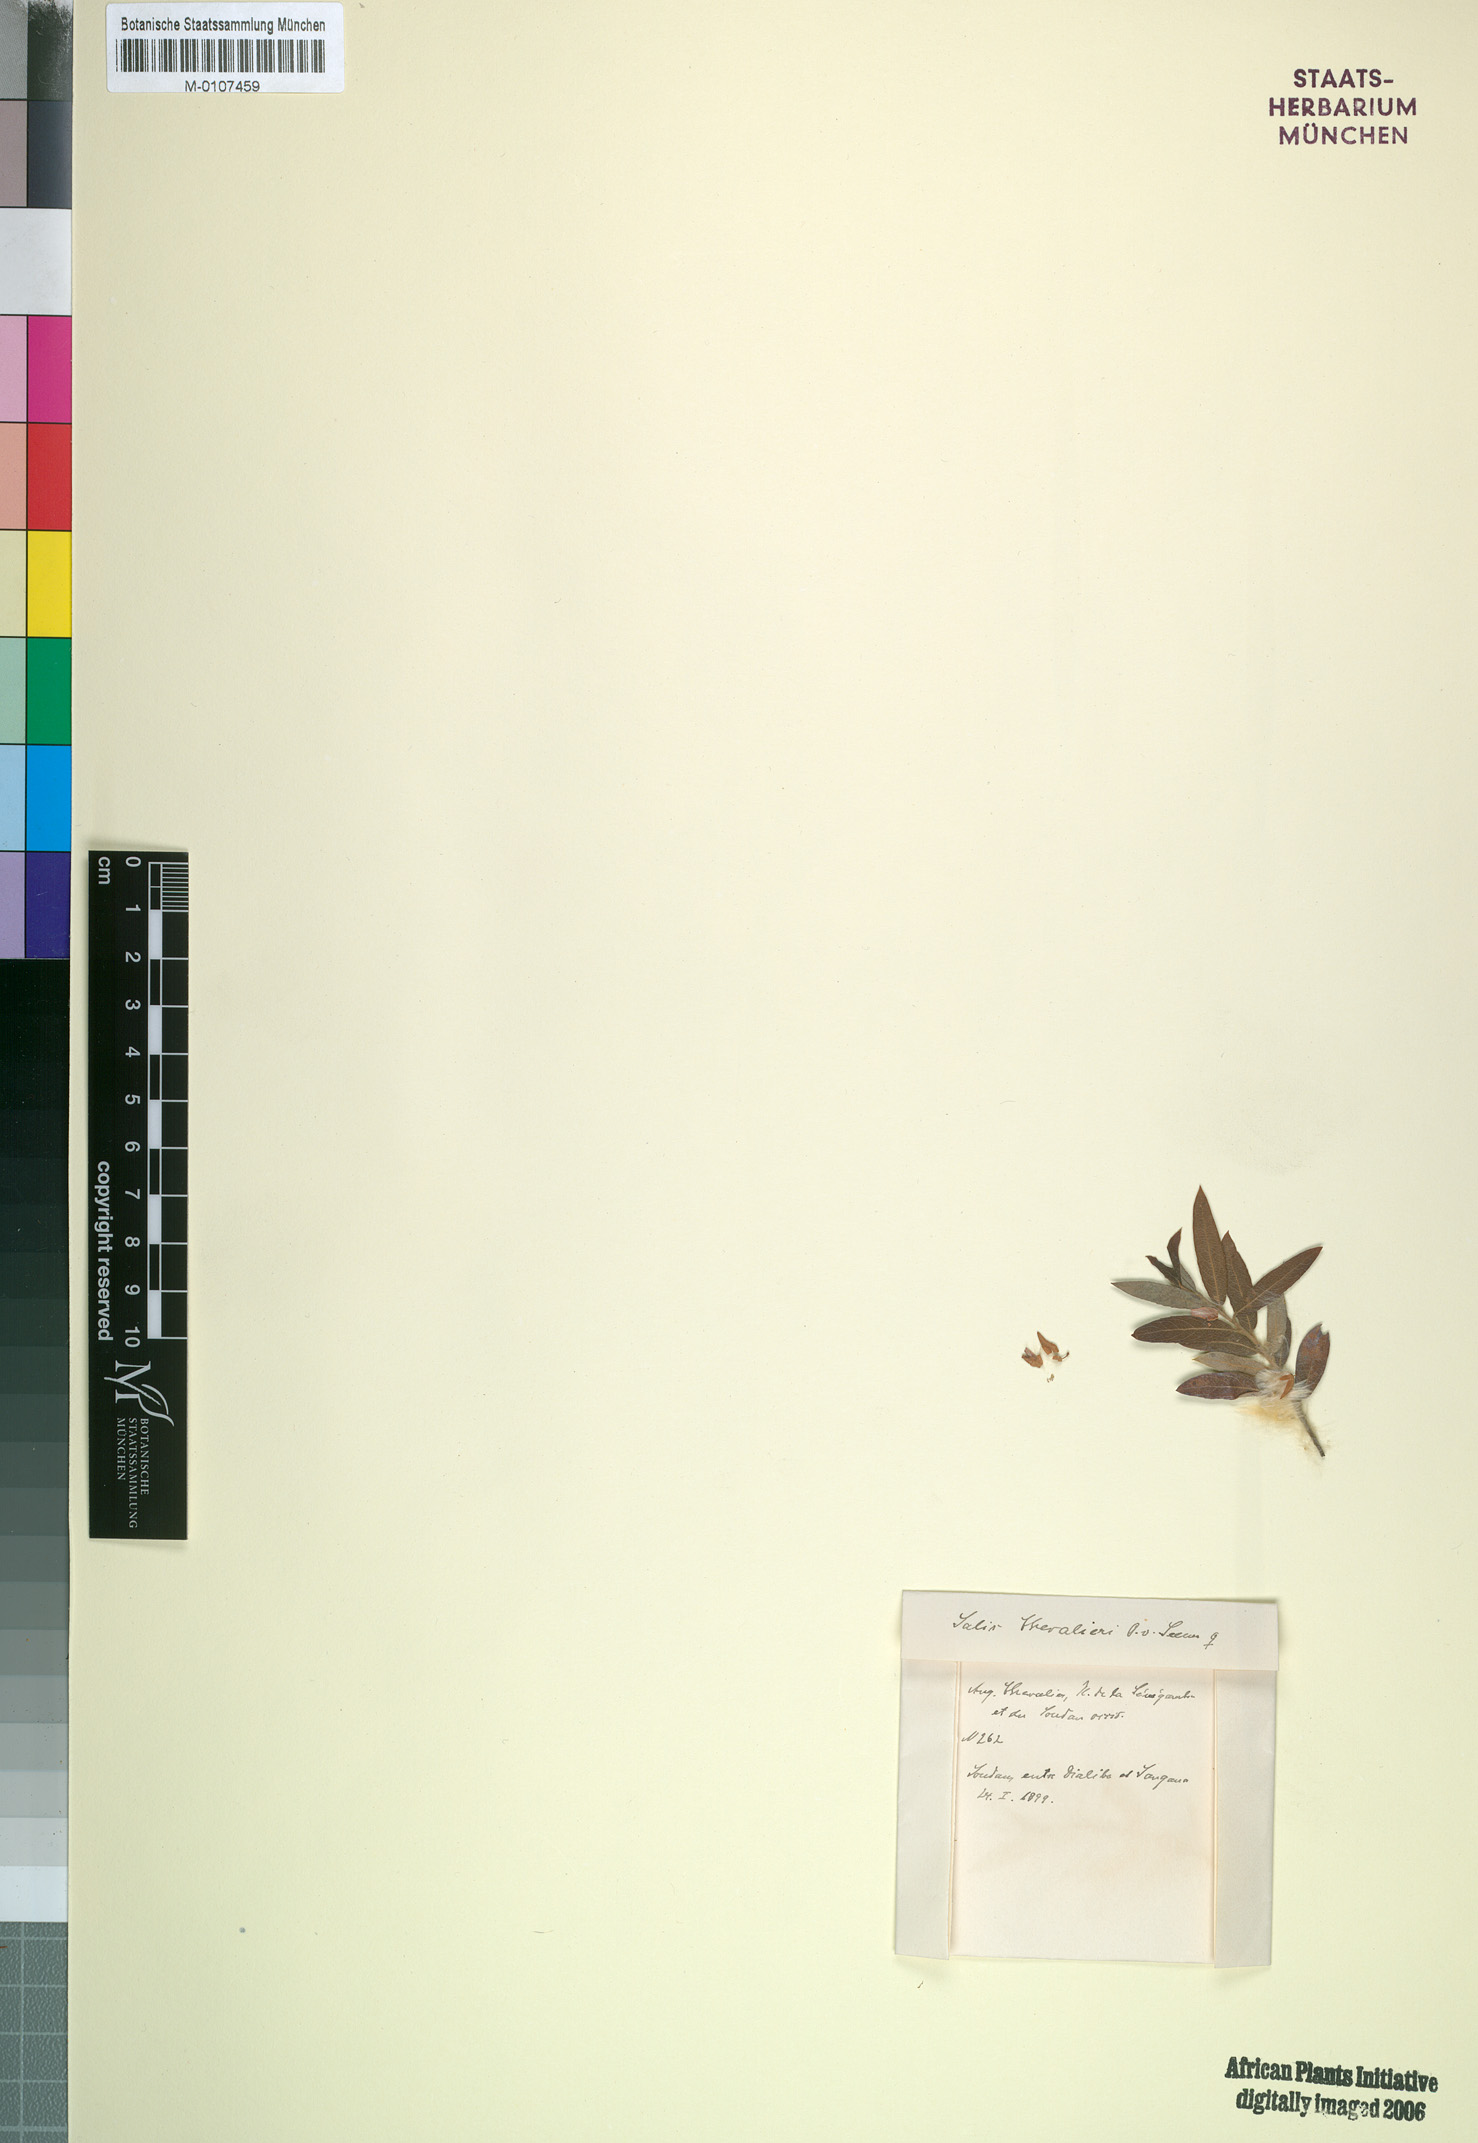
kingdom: Plantae
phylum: Tracheophyta
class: Magnoliopsida
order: Malpighiales
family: Salicaceae
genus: Salix
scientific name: Salix chevalieri
